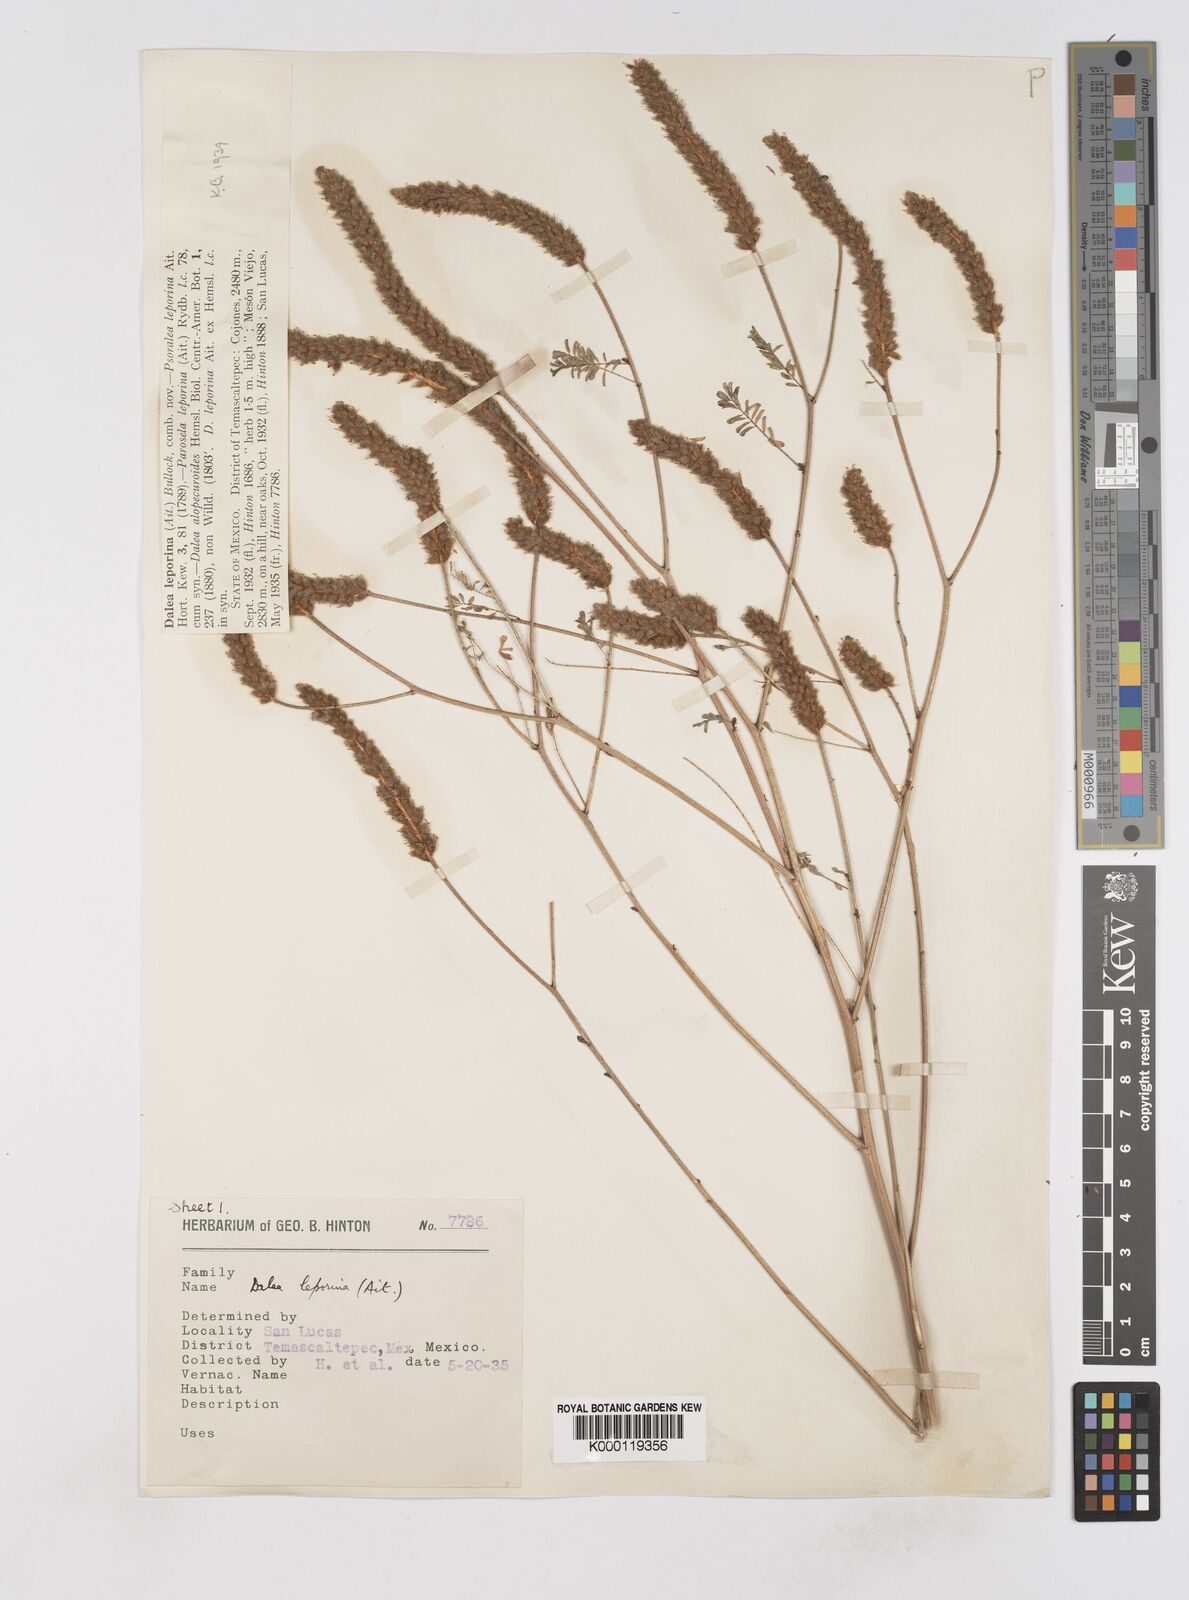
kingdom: Plantae
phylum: Tracheophyta
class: Magnoliopsida
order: Fabales
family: Fabaceae
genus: Dalea
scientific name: Dalea leporina
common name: Foxtail dalea
